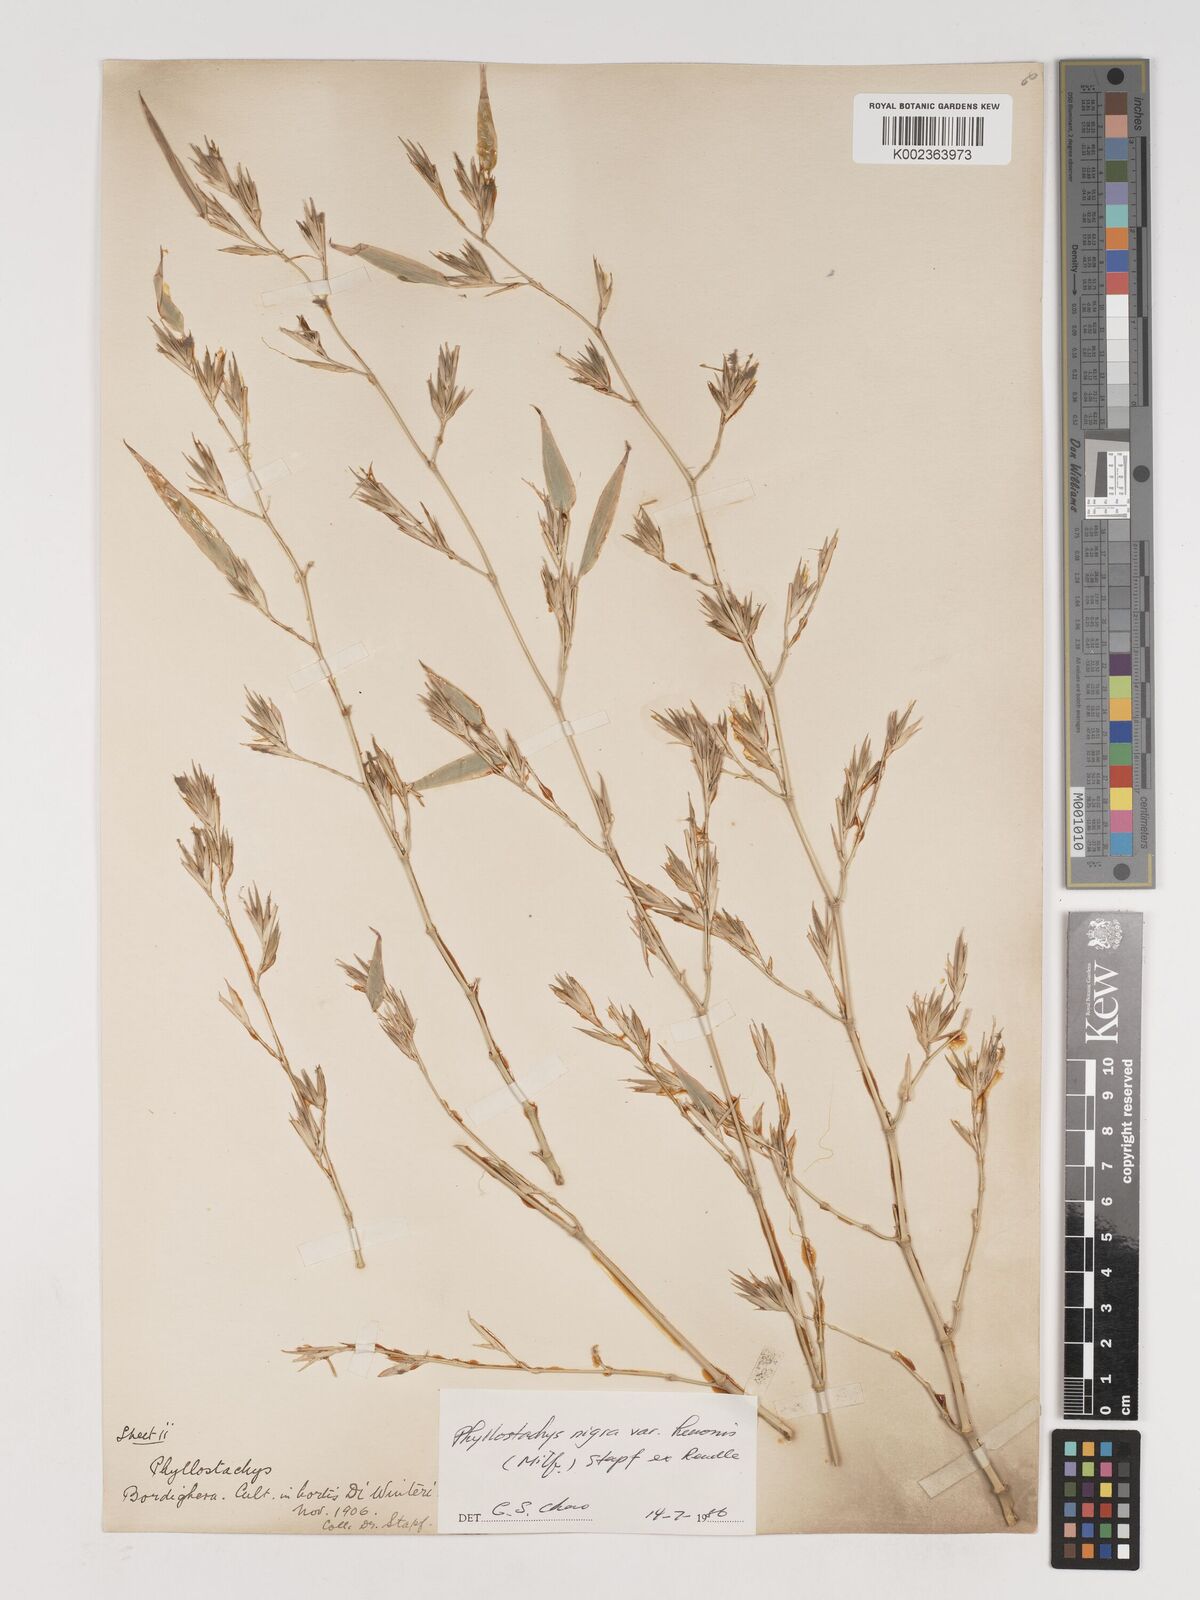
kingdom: Plantae
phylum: Tracheophyta
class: Liliopsida
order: Poales
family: Poaceae
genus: Phyllostachys
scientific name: Phyllostachys nigra
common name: Black bamboo
